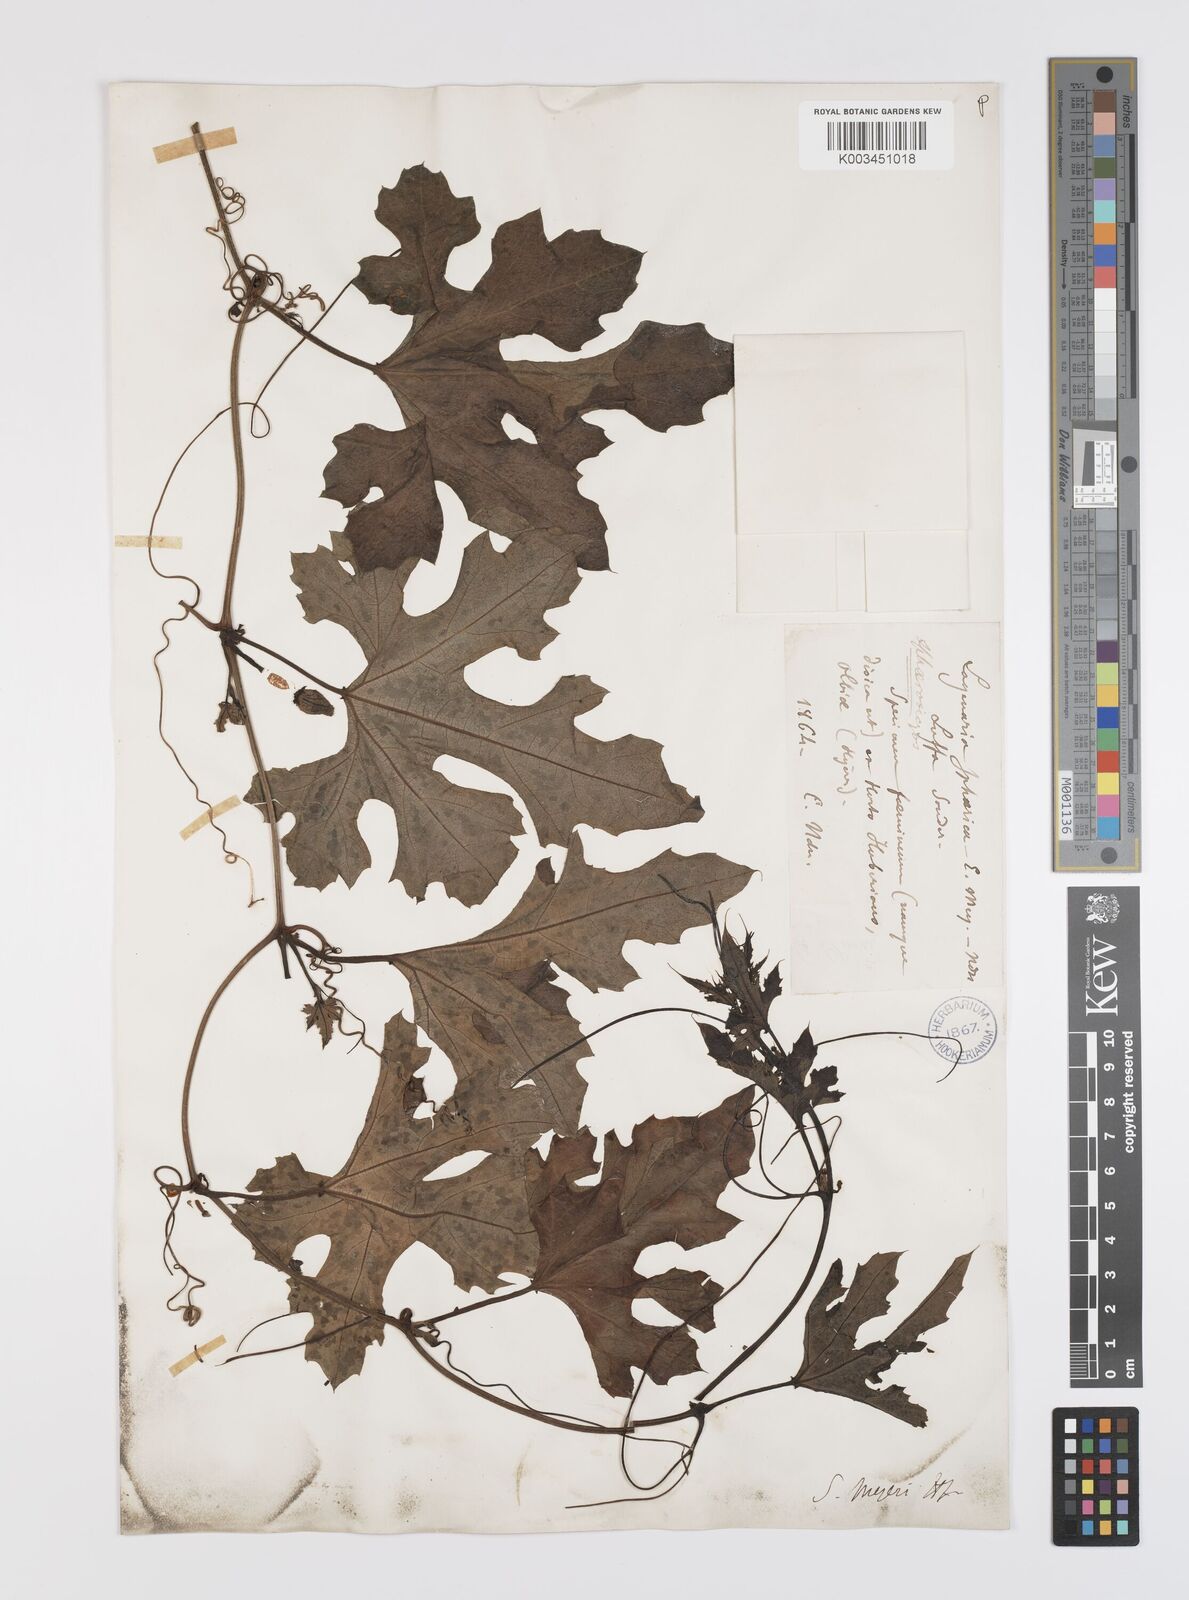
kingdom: Plantae
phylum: Tracheophyta
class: Magnoliopsida
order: Cucurbitales
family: Cucurbitaceae
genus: Lagenaria
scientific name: Lagenaria sphaerica
